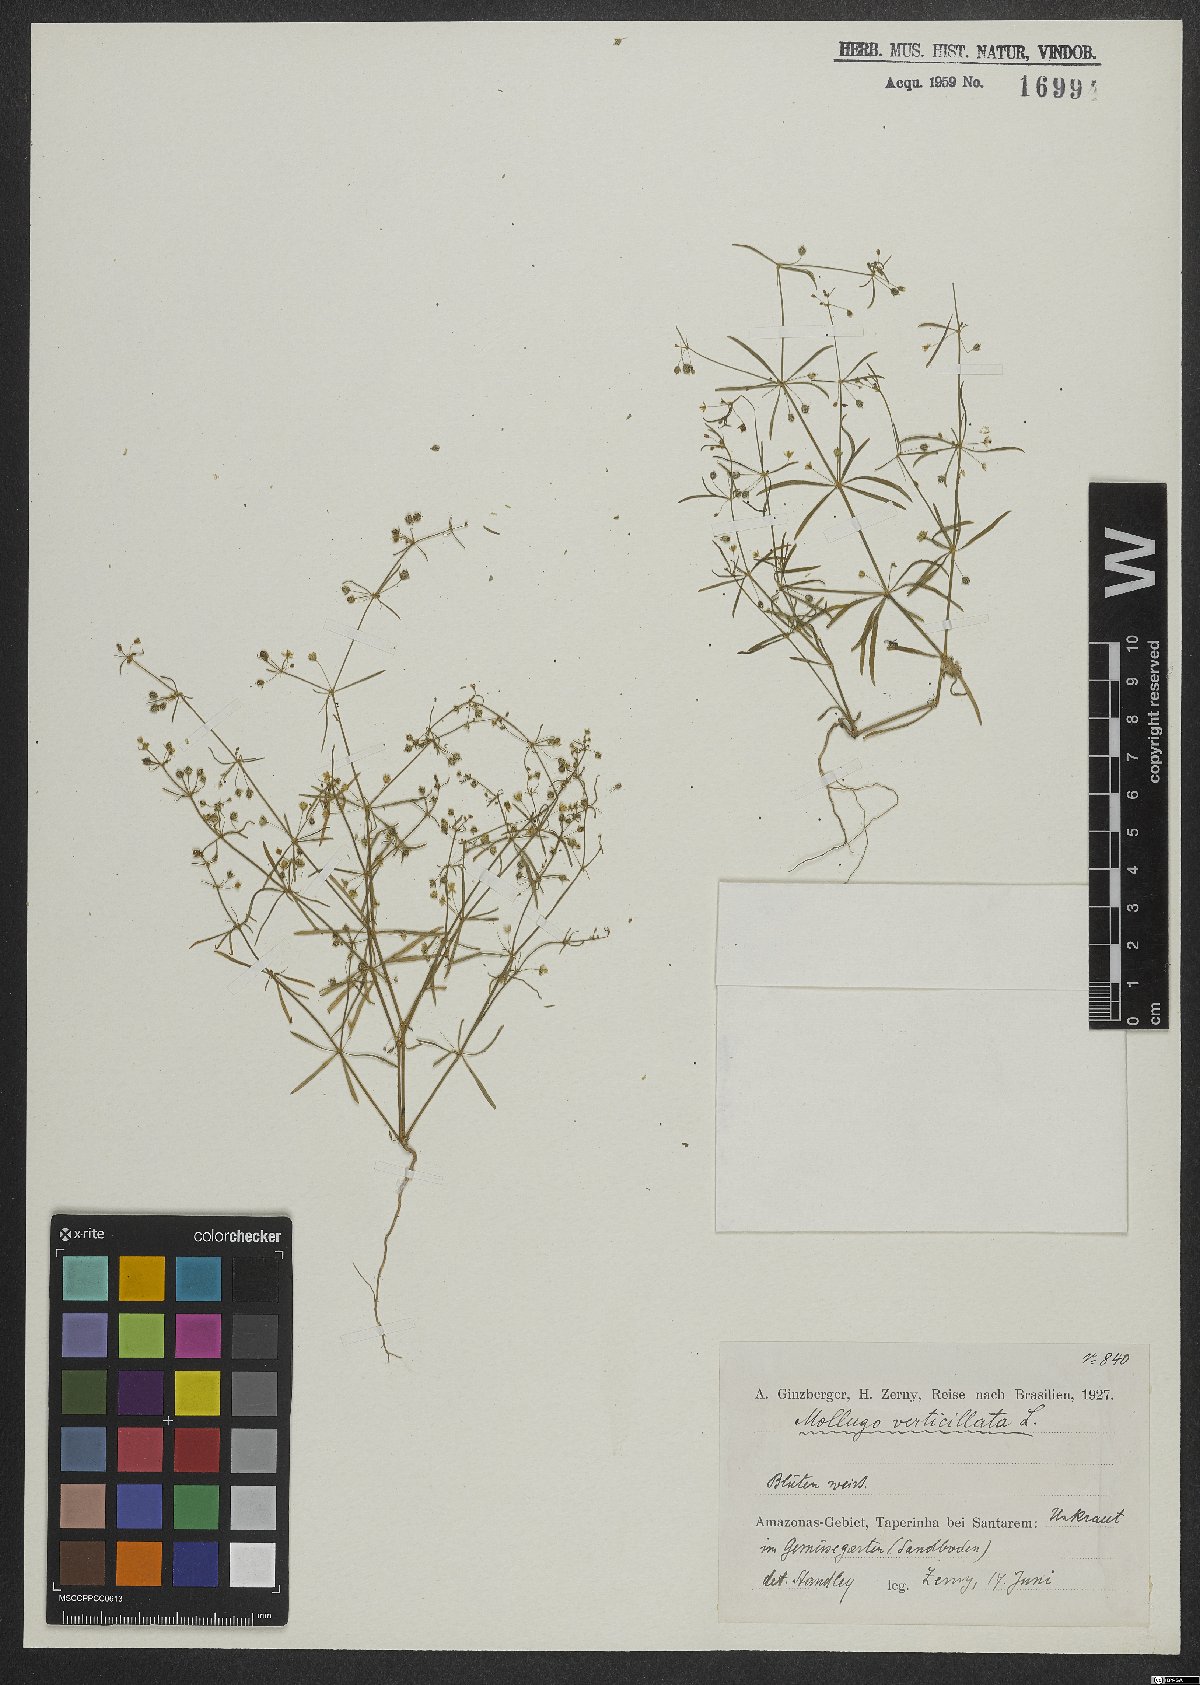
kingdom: Plantae
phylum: Tracheophyta
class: Magnoliopsida
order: Caryophyllales
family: Molluginaceae
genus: Mollugo
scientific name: Mollugo verticillata
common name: Green carpetweed
